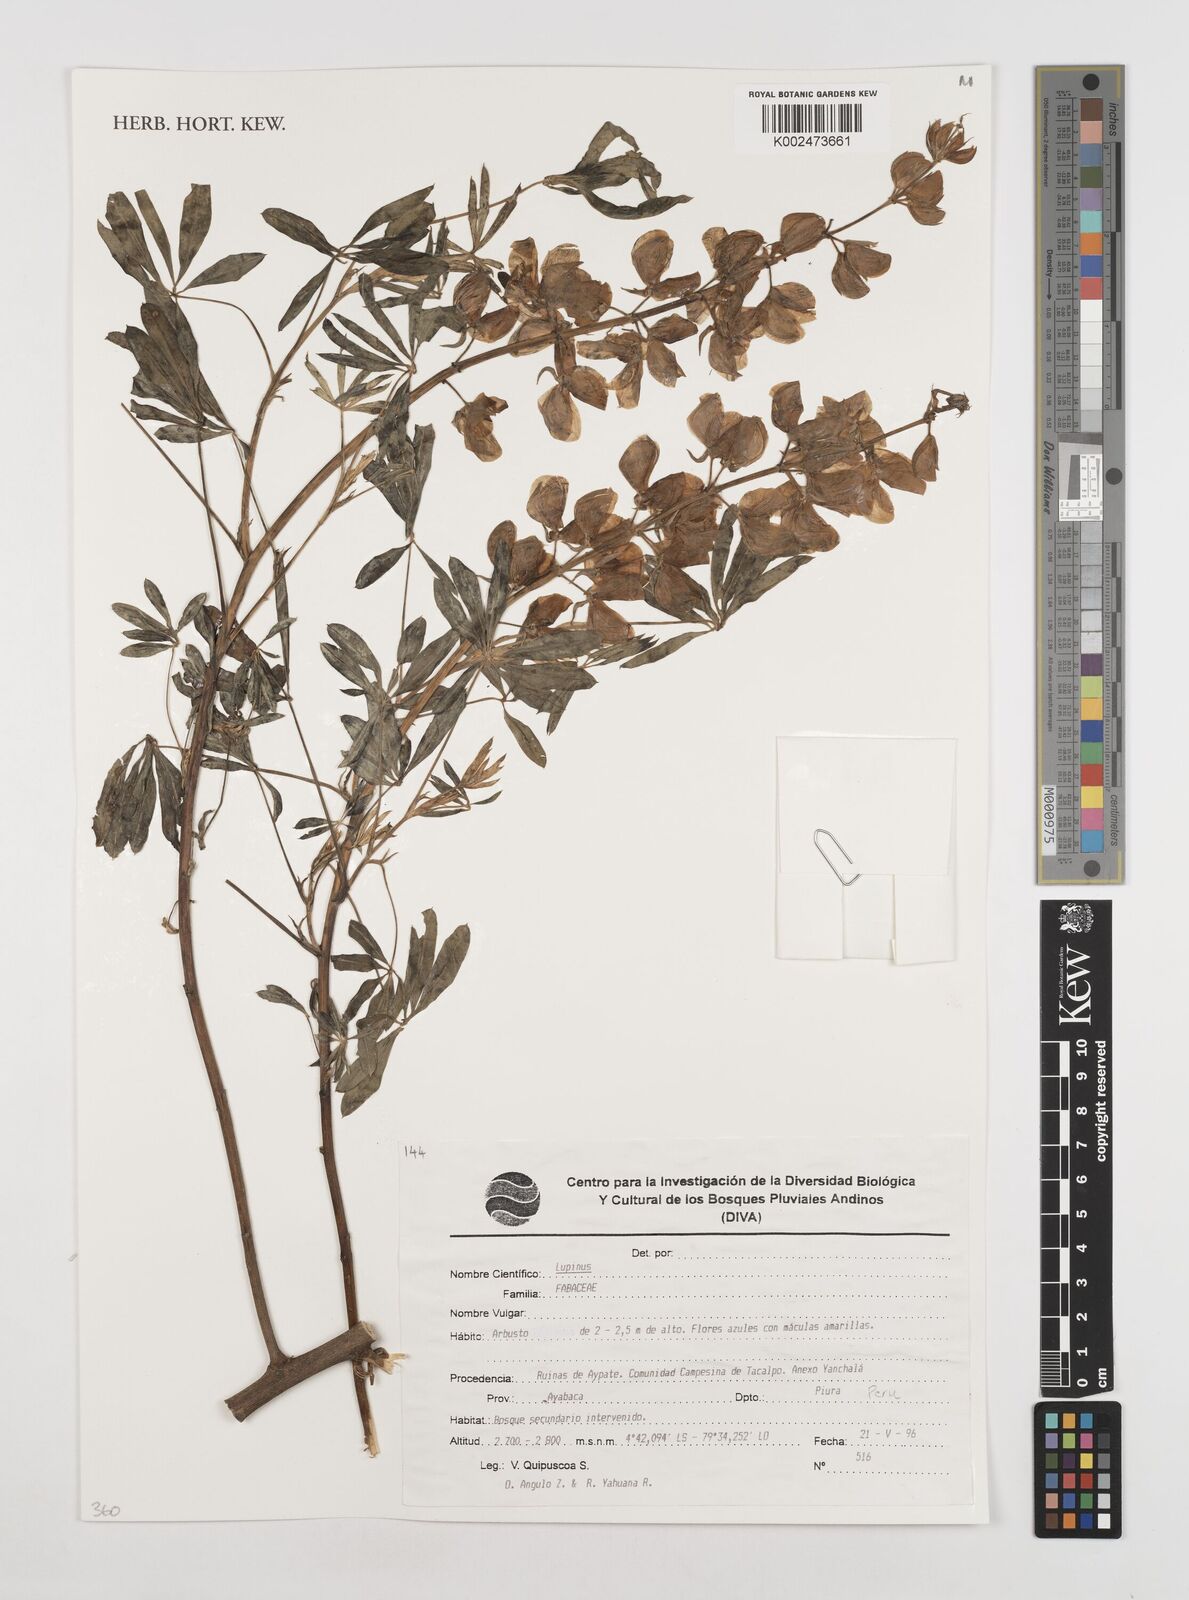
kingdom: Plantae
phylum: Tracheophyta
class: Magnoliopsida
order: Fabales
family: Fabaceae
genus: Lupinus
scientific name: Lupinus
